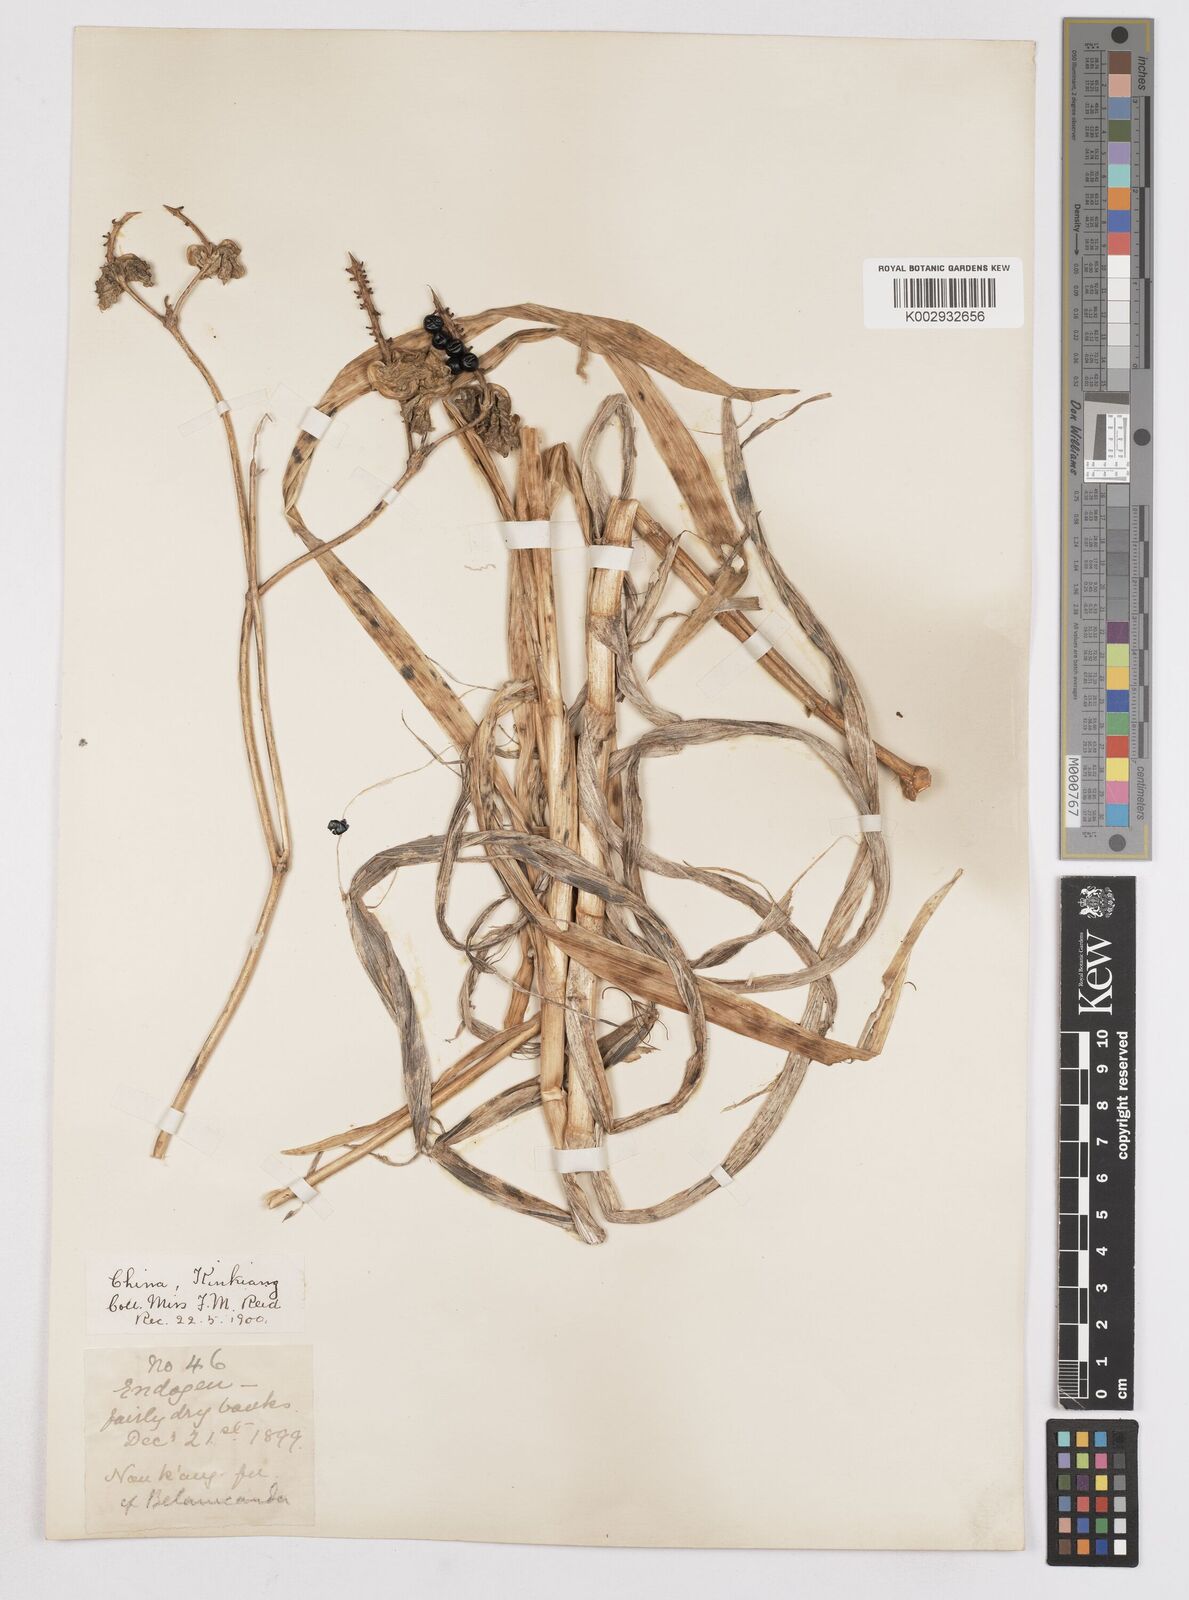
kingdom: Plantae
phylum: Tracheophyta
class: Liliopsida
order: Asparagales
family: Iridaceae
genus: Iris
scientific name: Iris
